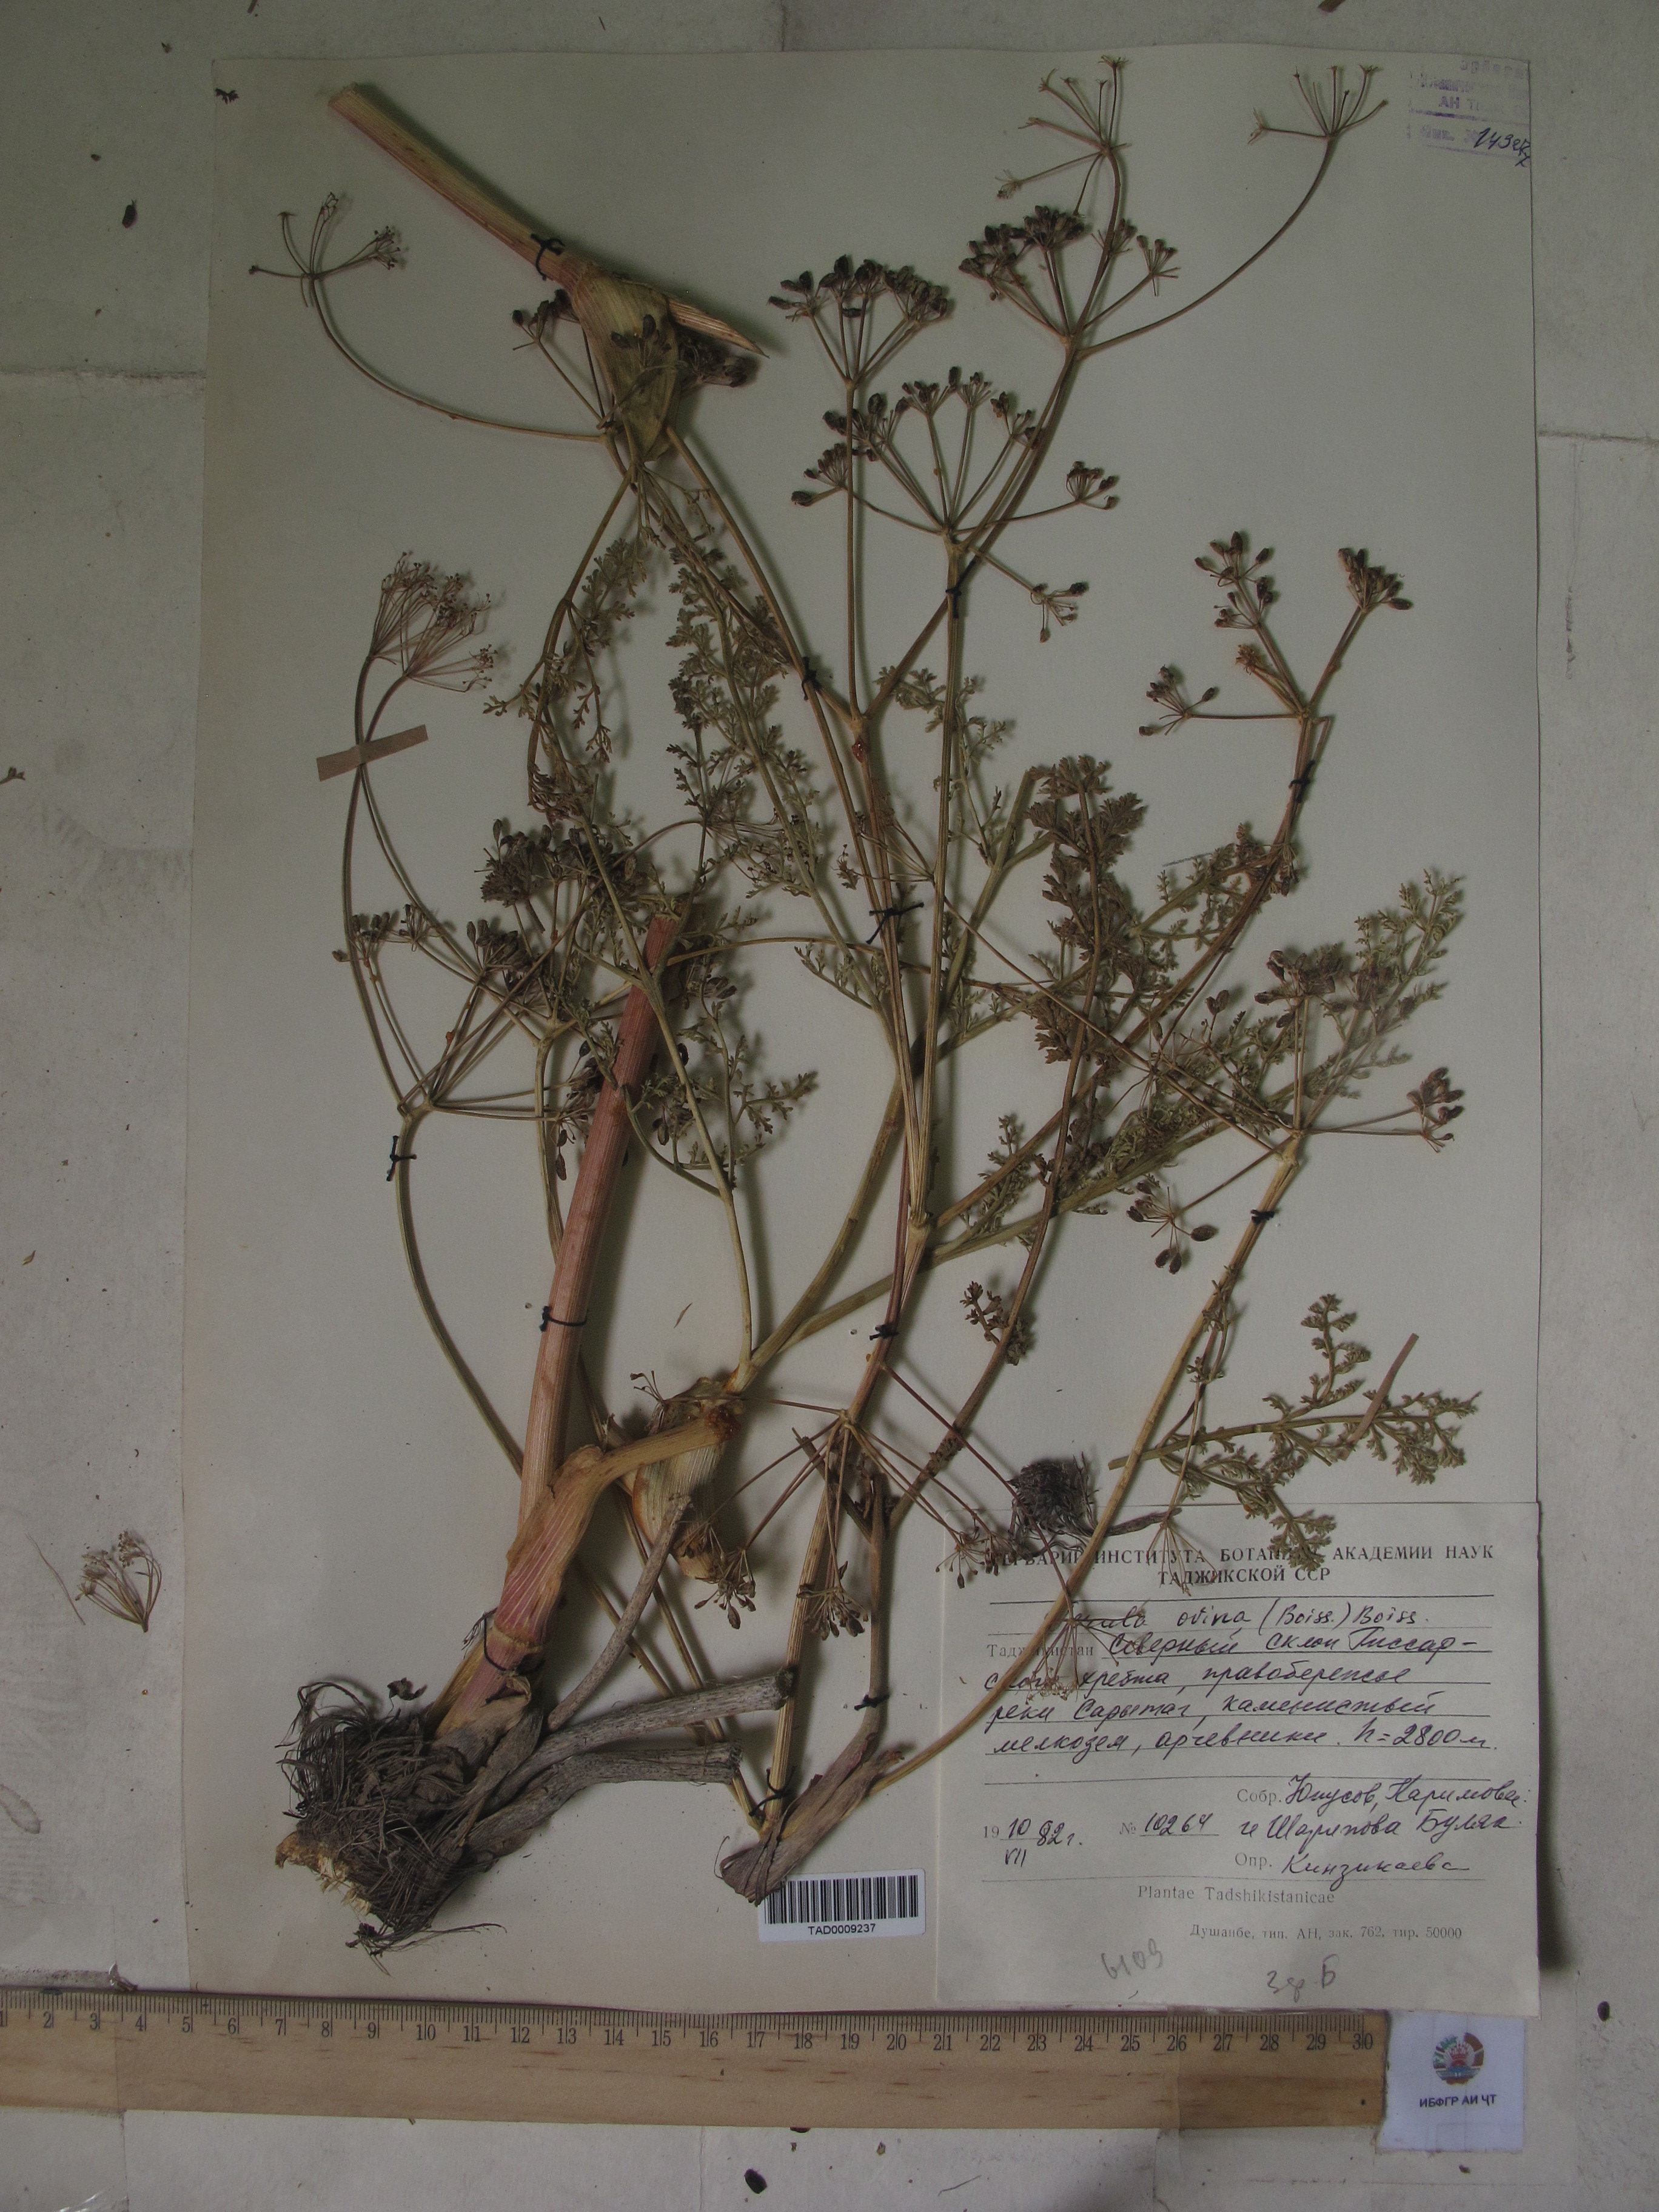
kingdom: Plantae
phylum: Tracheophyta
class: Magnoliopsida
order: Apiales
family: Apiaceae
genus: Ferula
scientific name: Ferula ovina
